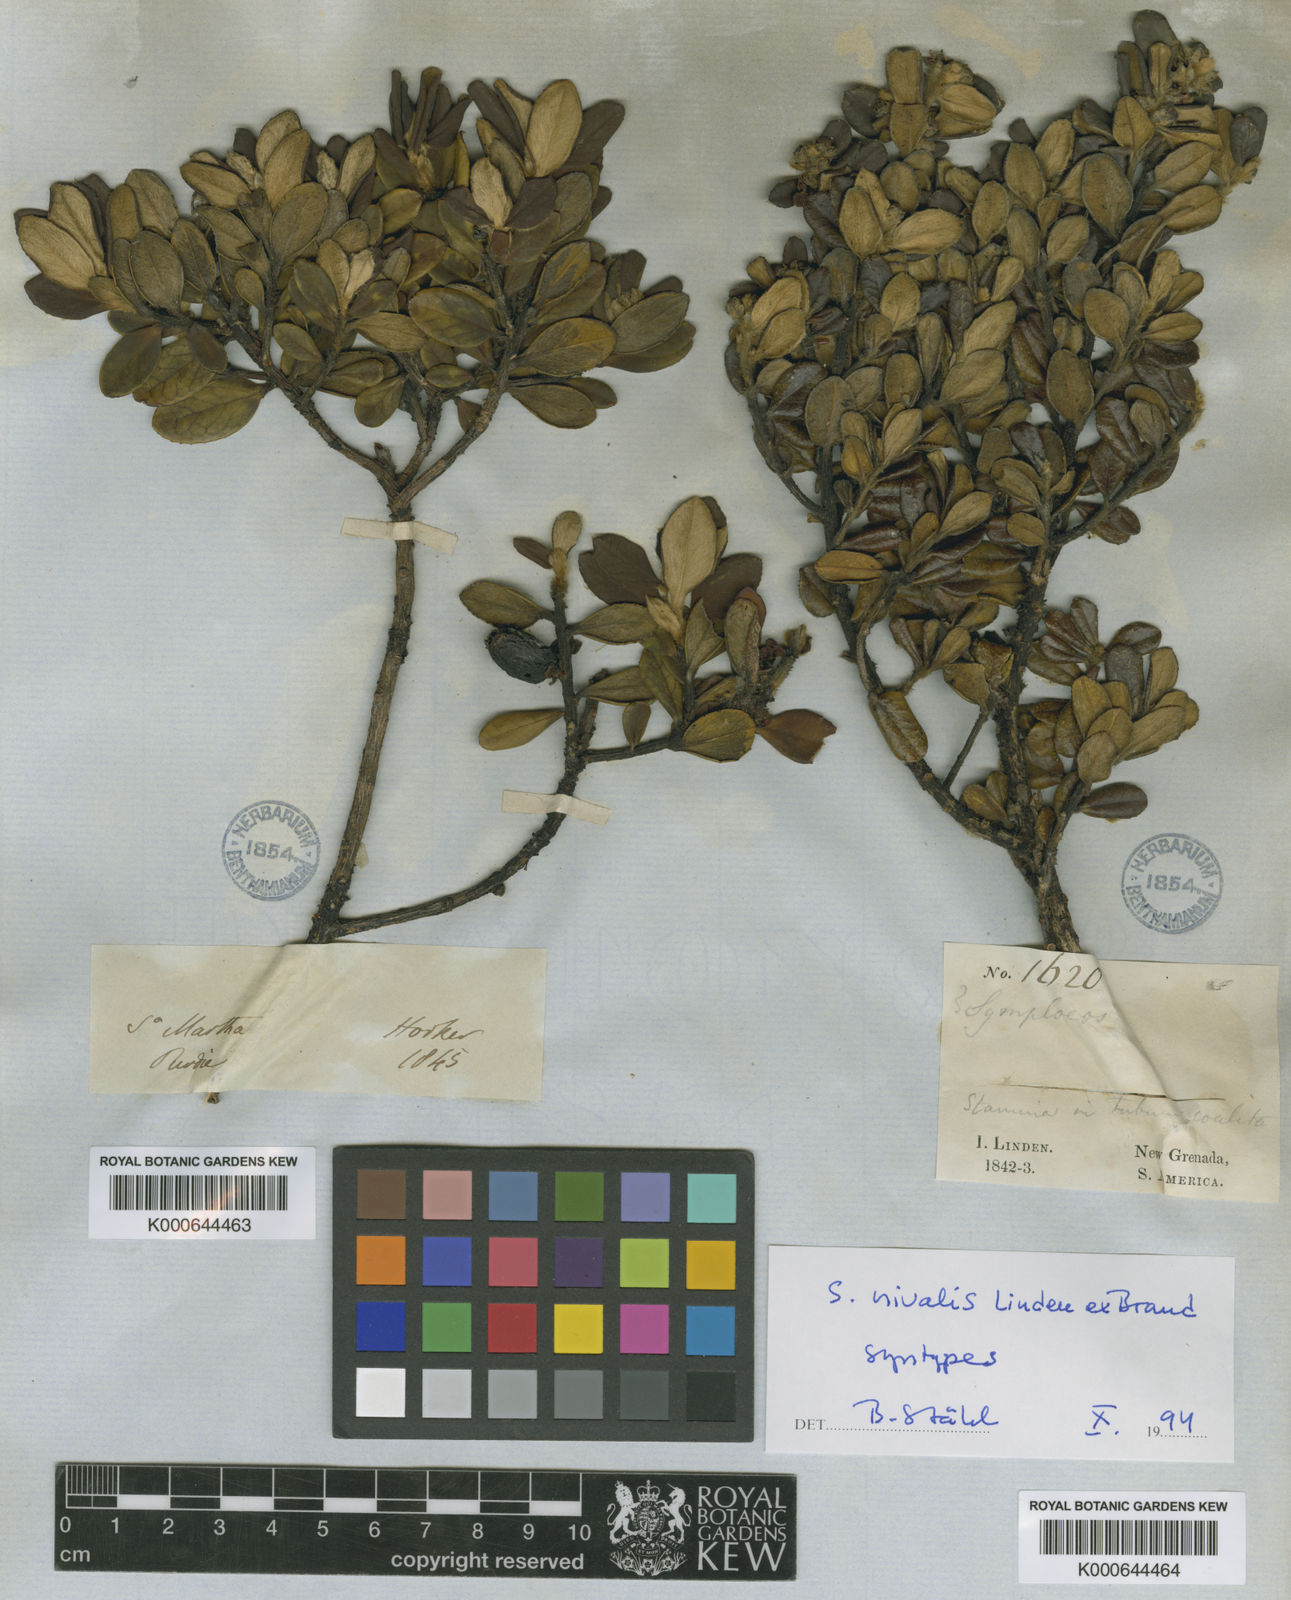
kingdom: Plantae
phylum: Tracheophyta
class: Magnoliopsida
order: Ericales
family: Symplocaceae
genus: Symplocos
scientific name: Symplocos nivalis
